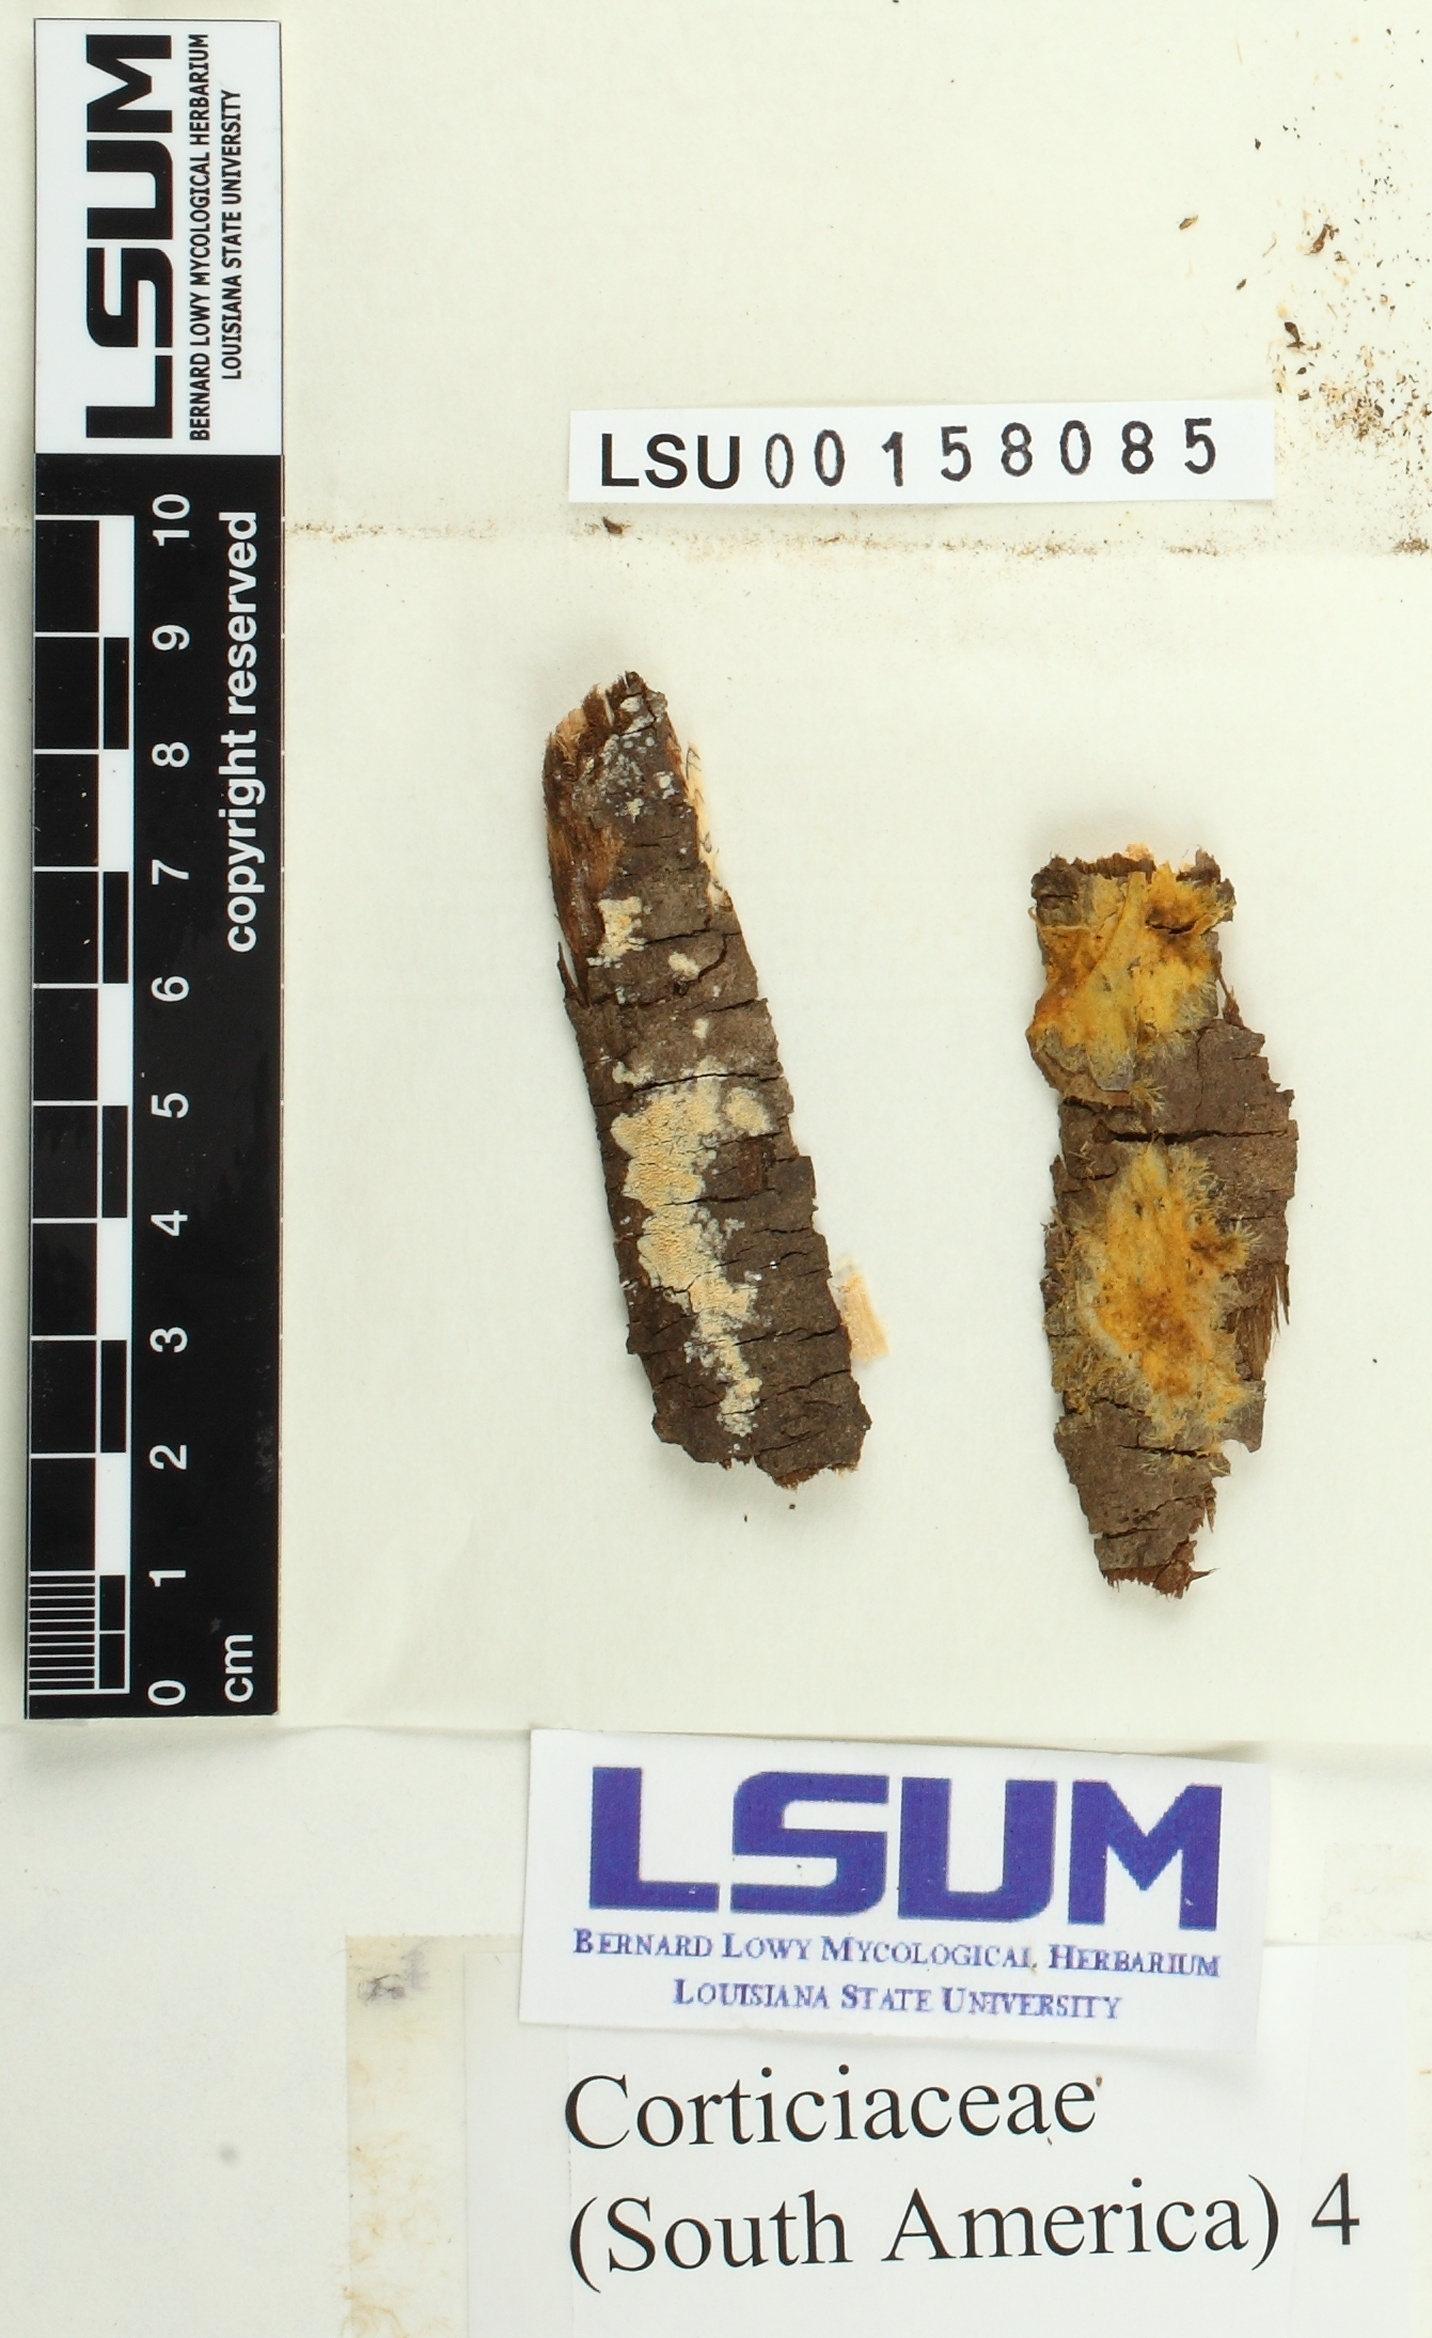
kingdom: Fungi
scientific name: Fungi
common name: Fungi
